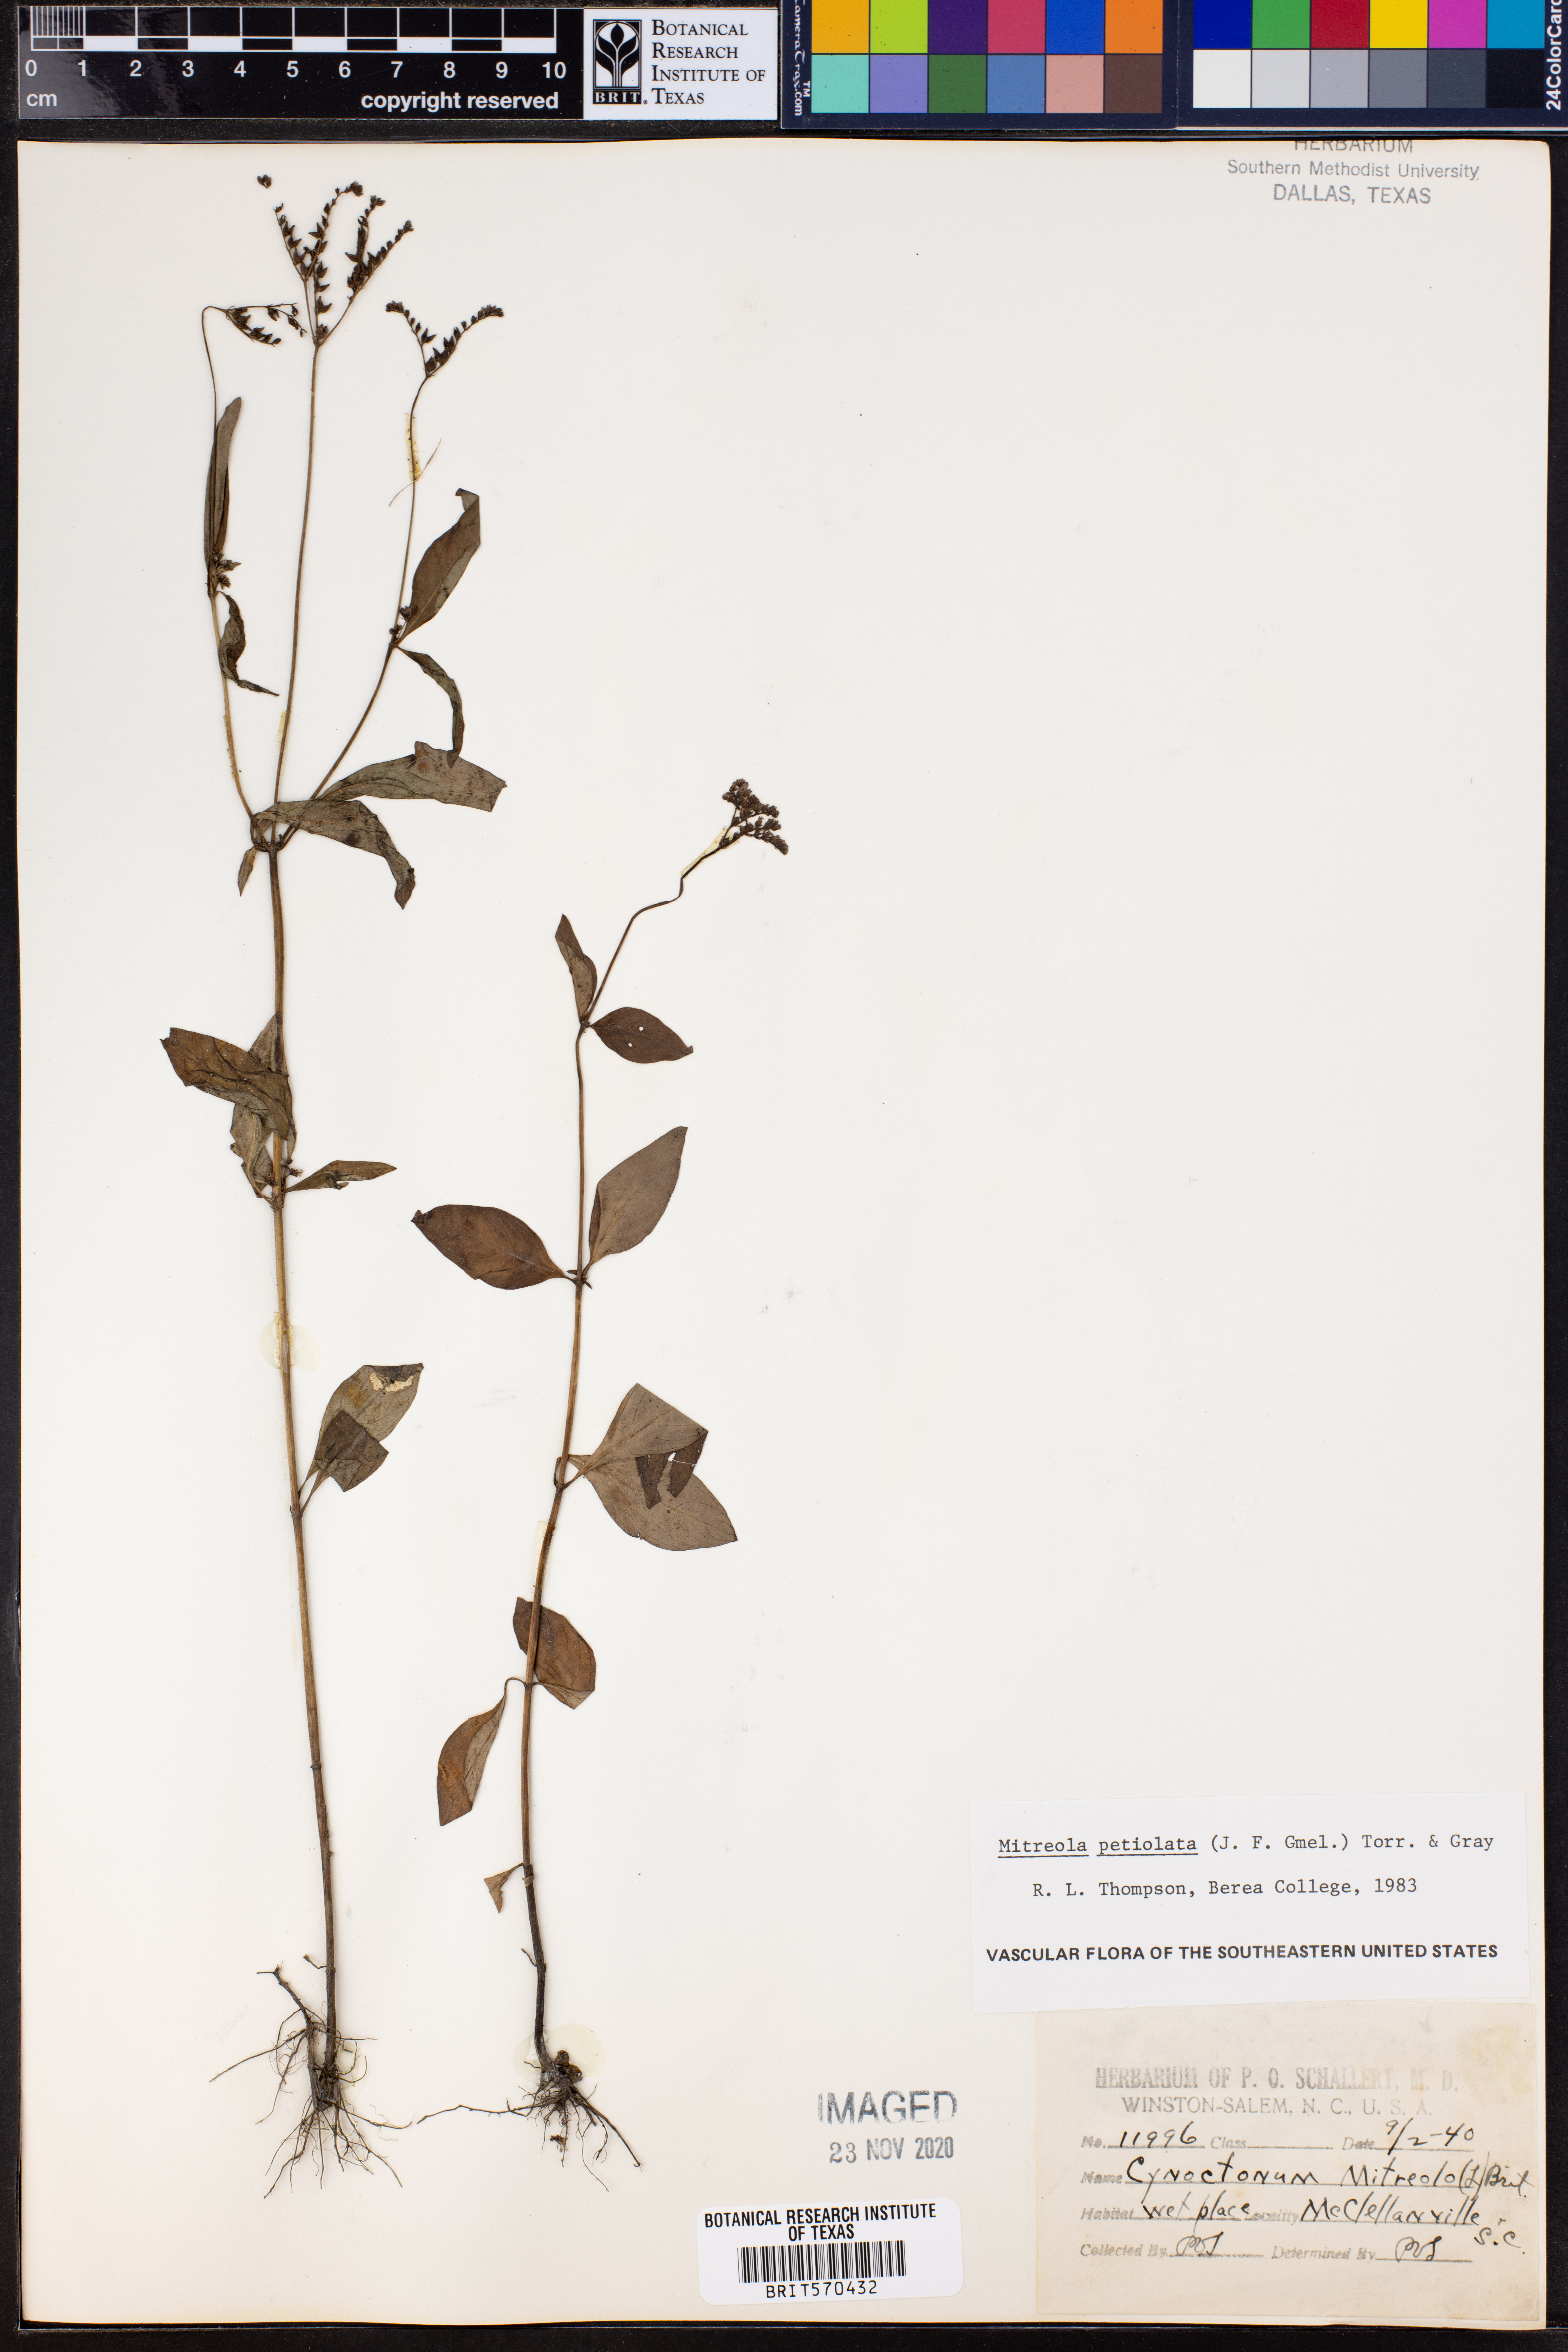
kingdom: Plantae
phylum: Tracheophyta
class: Magnoliopsida
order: Gentianales
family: Loganiaceae
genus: Mitreola
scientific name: Mitreola petiolata
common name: Lax hornpod
